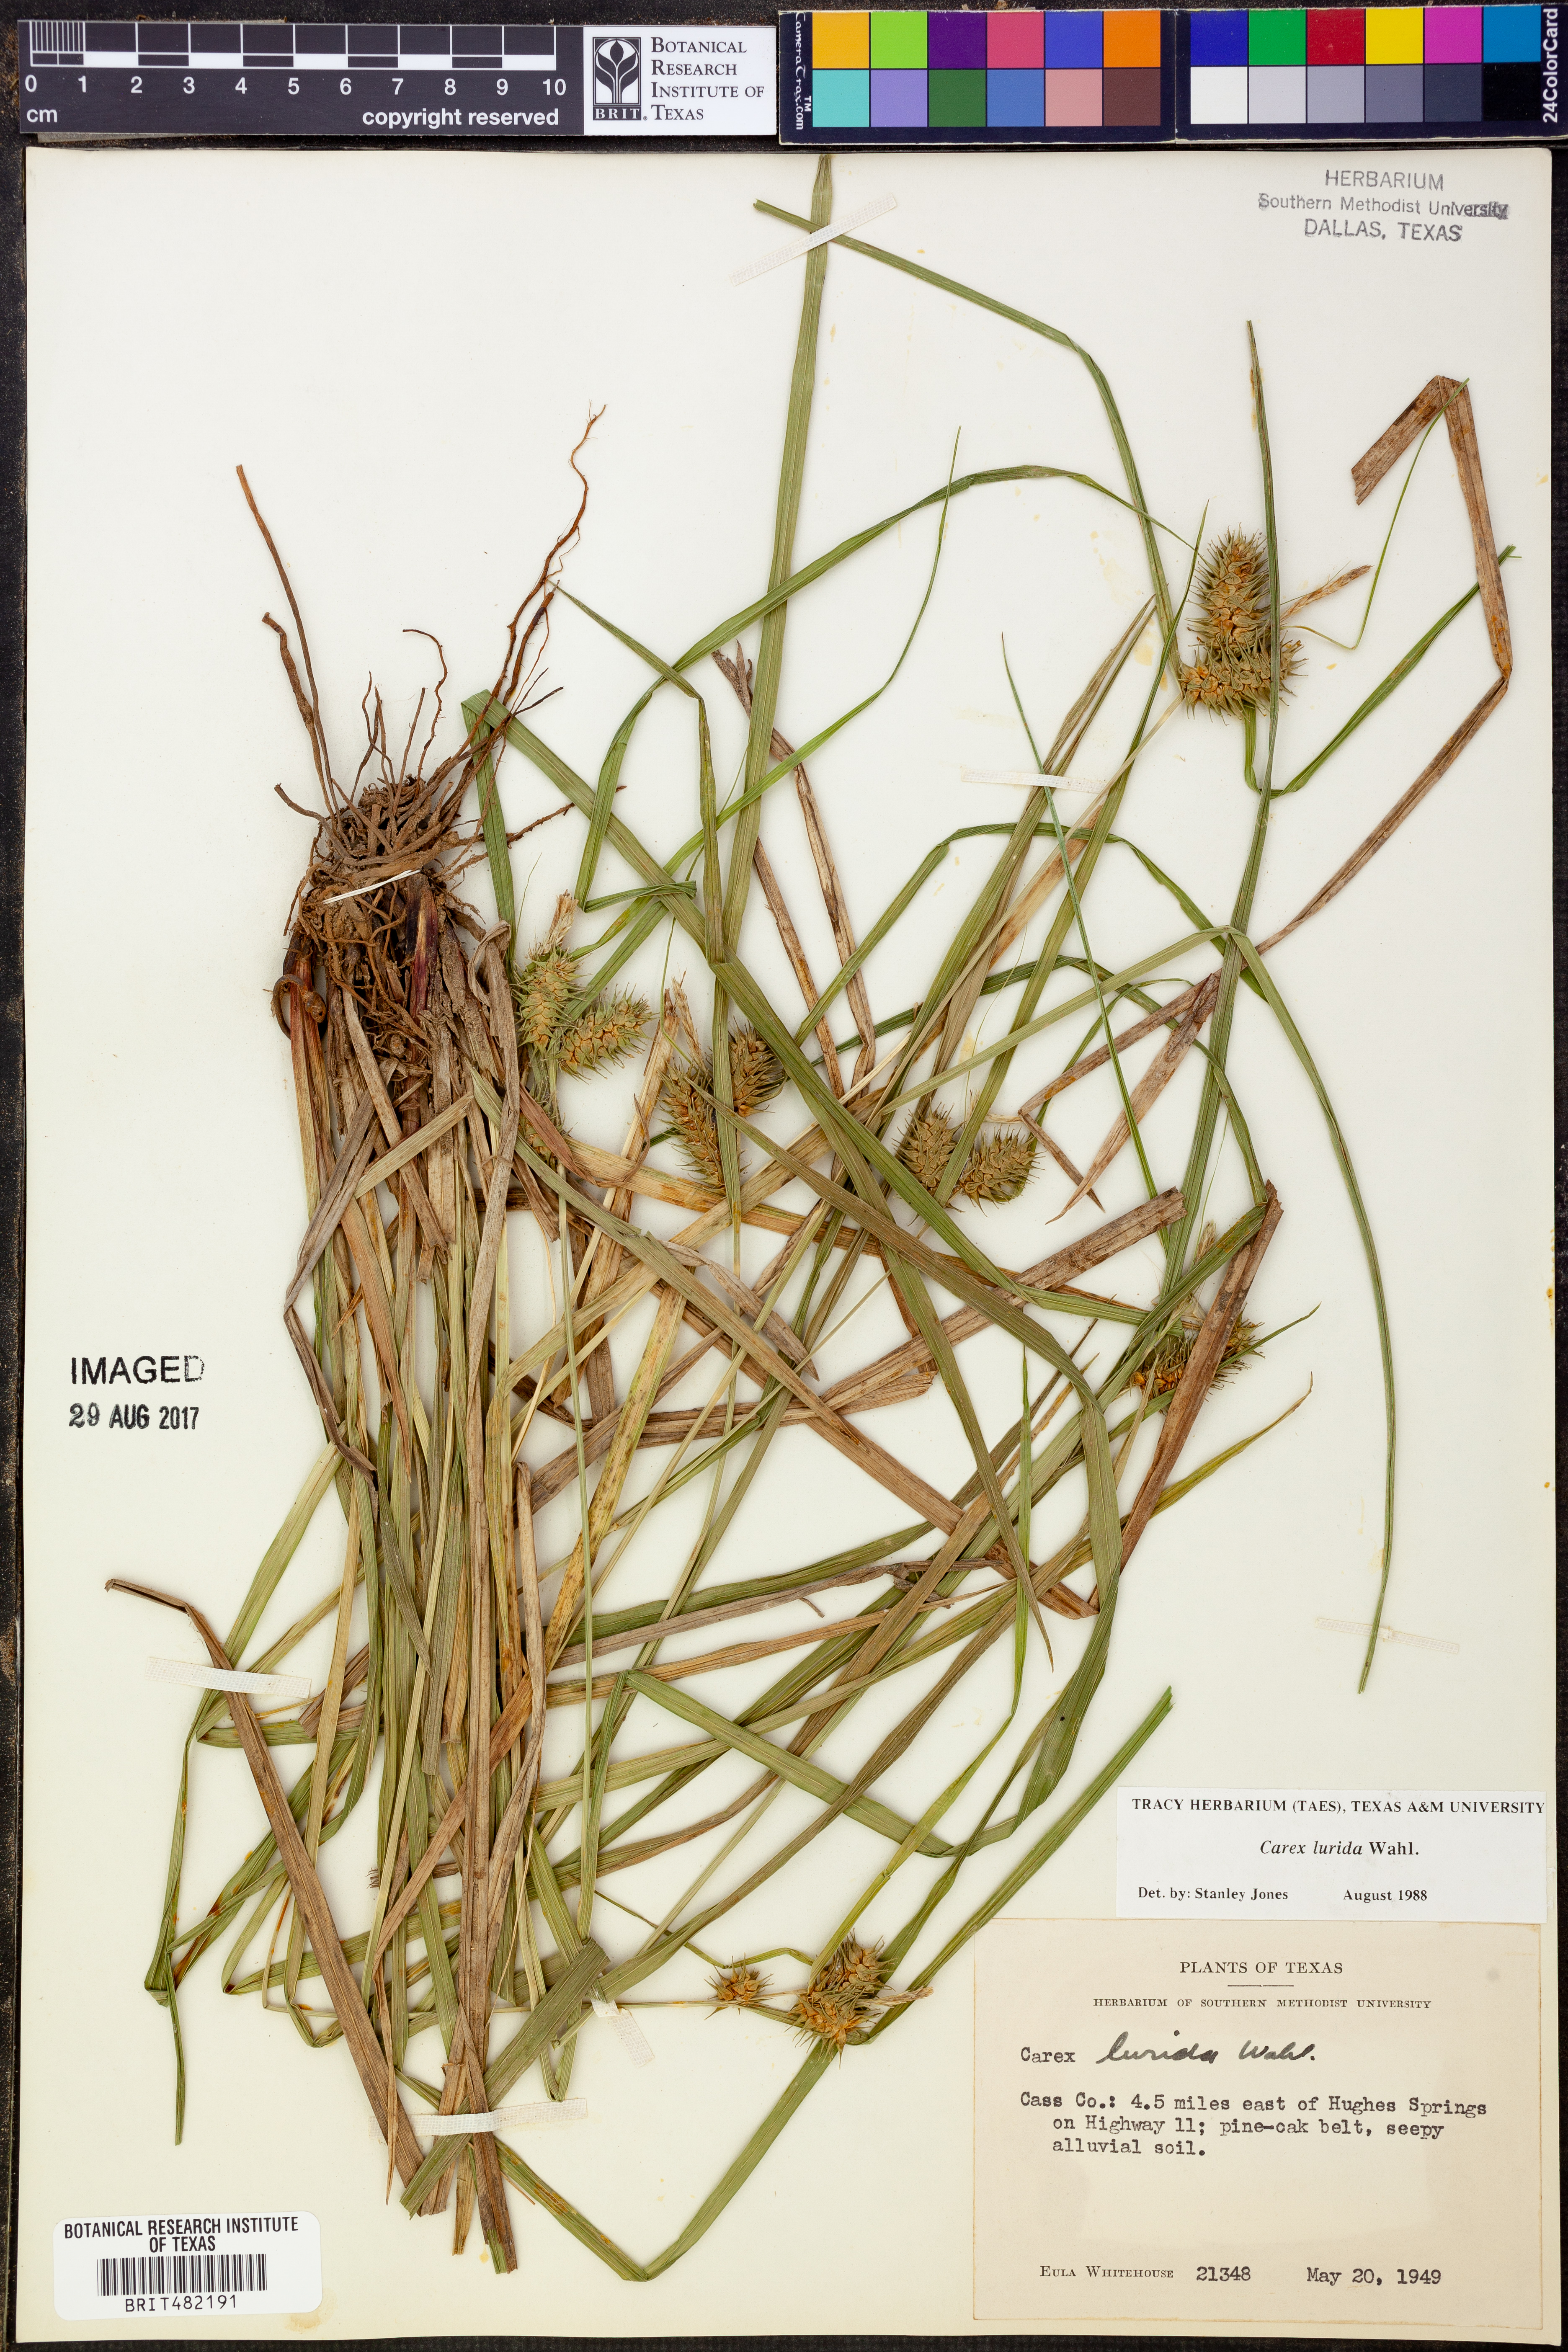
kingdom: Plantae
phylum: Tracheophyta
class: Liliopsida
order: Poales
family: Cyperaceae
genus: Carex
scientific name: Carex lurida
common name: Sallow sedge
